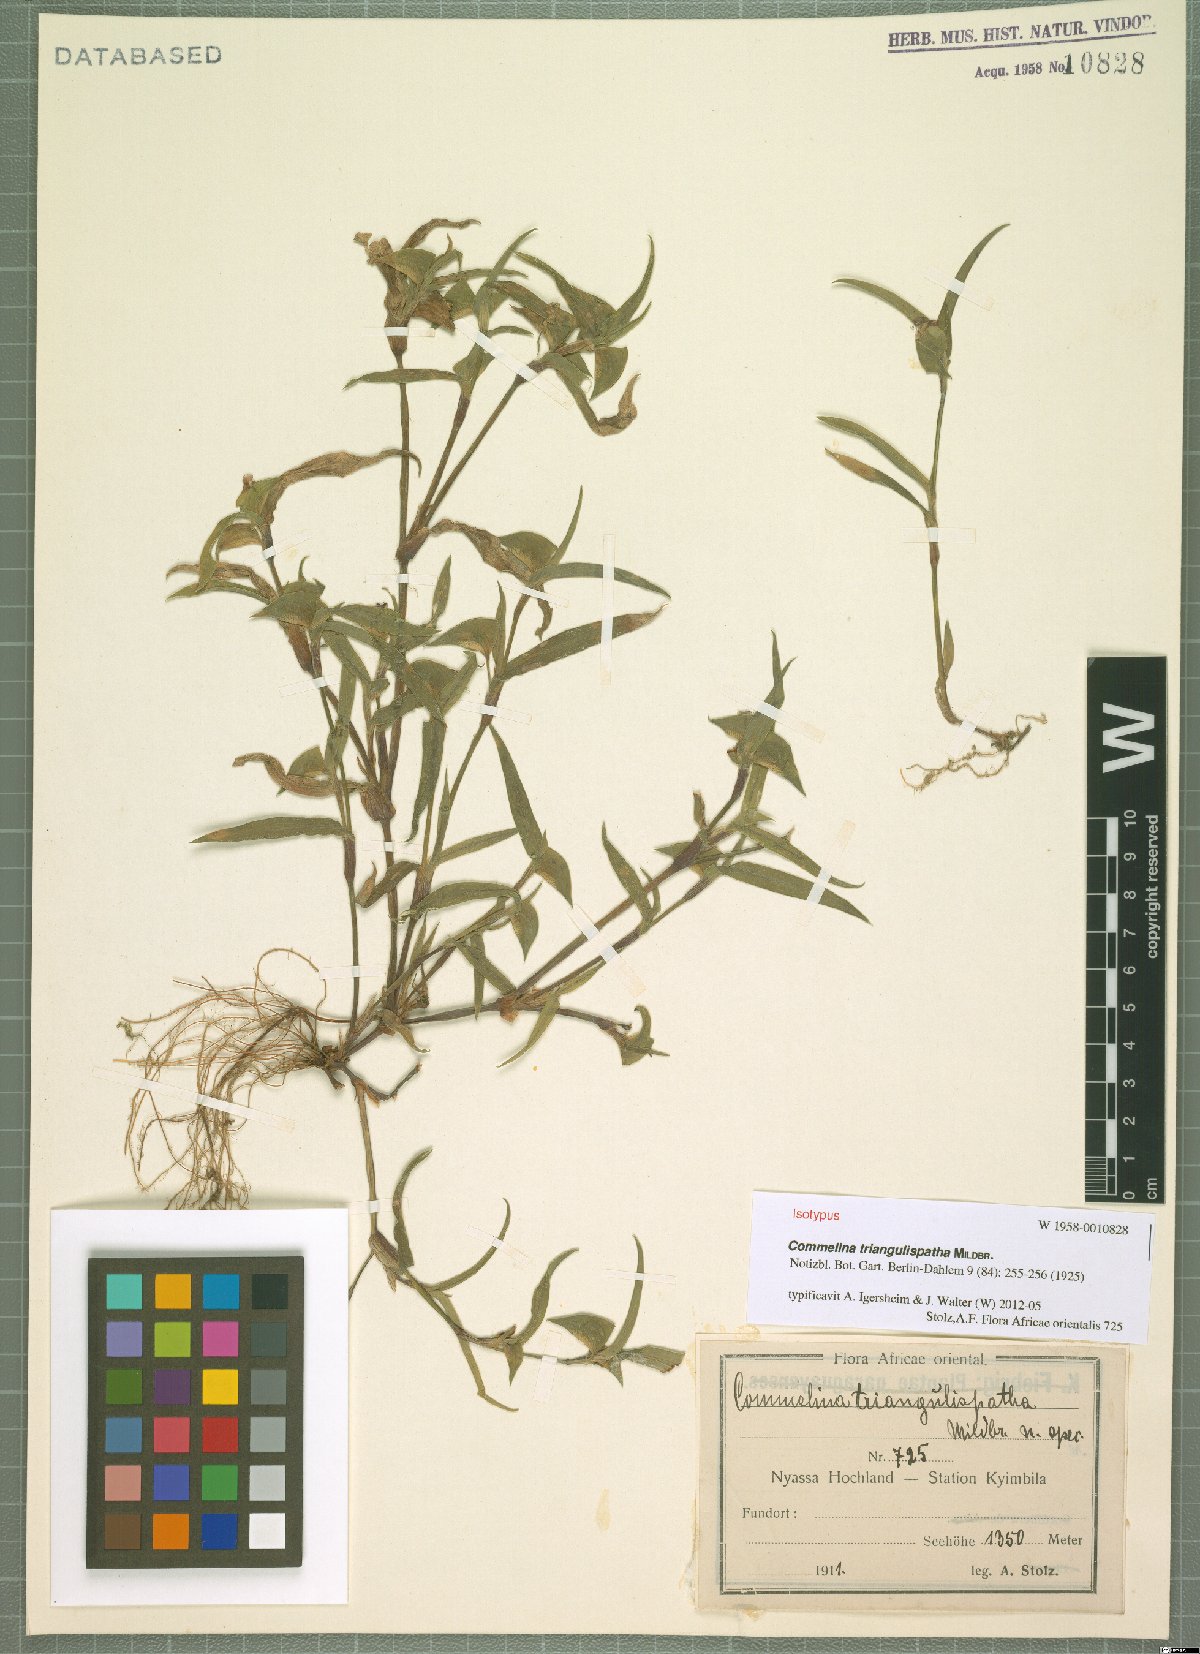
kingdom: Plantae
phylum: Tracheophyta
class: Liliopsida
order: Commelinales
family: Commelinaceae
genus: Commelina
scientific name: Commelina triangulispatha
